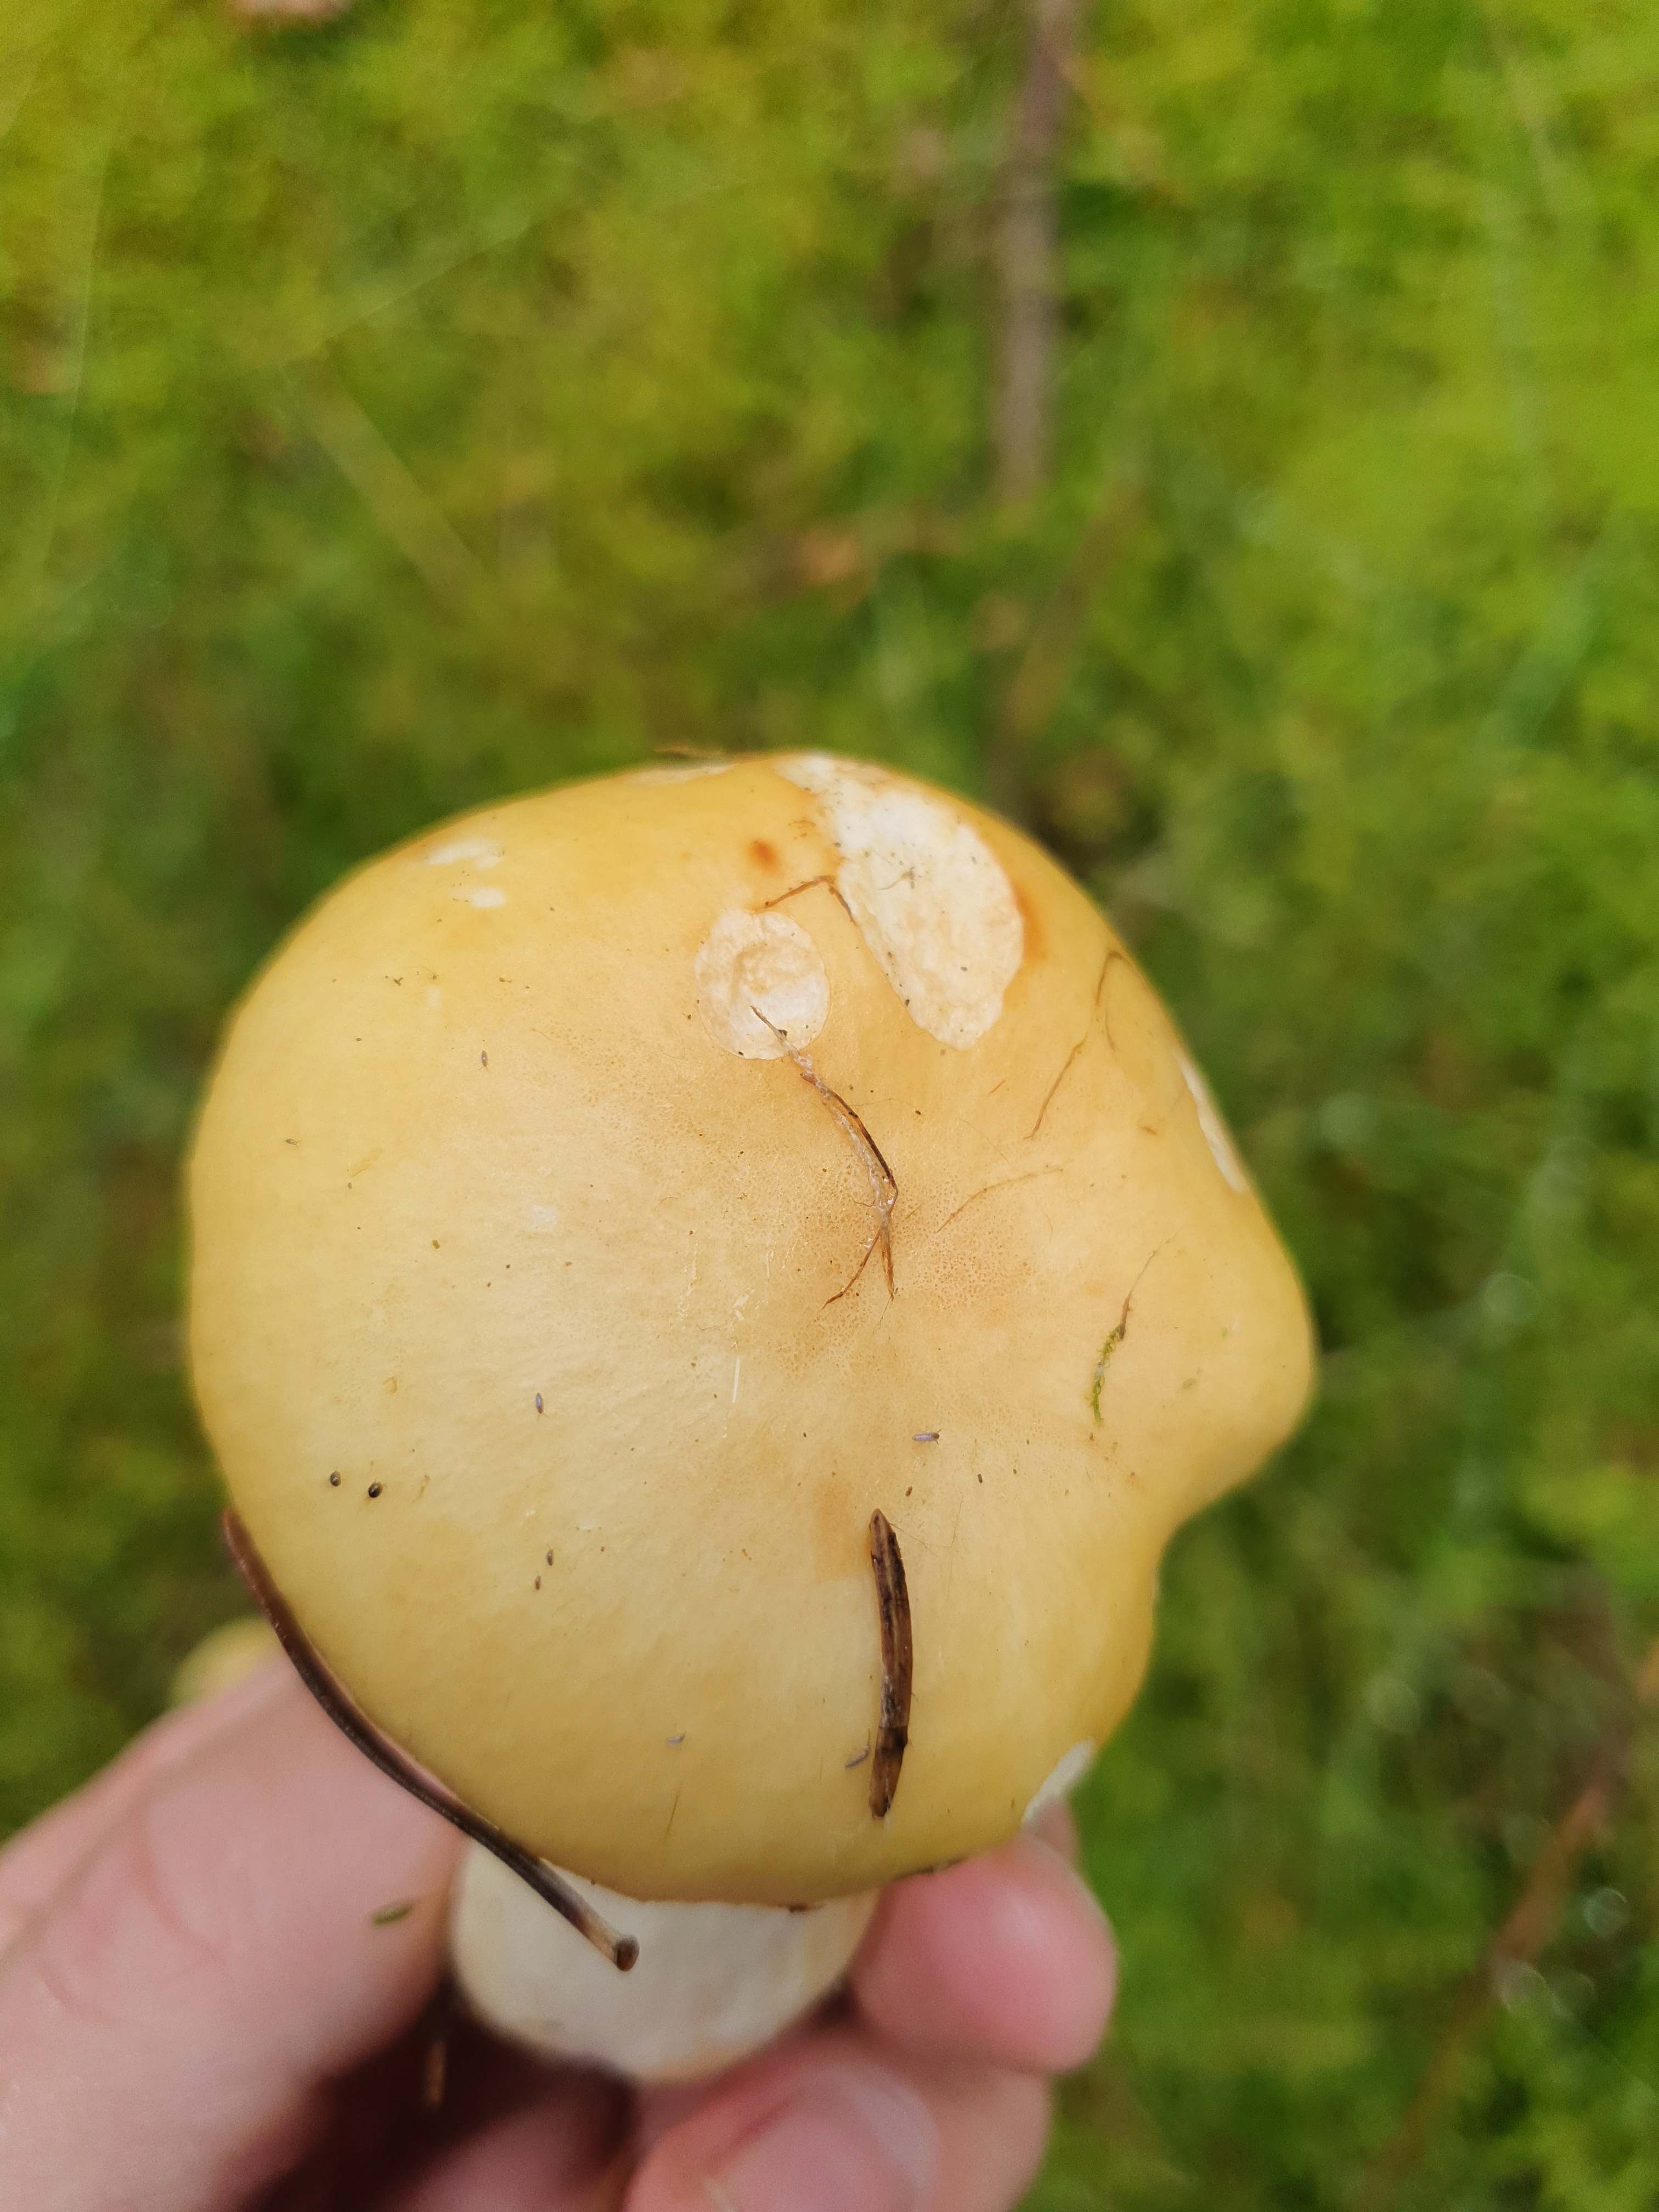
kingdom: Fungi
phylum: Basidiomycota
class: Agaricomycetes
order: Agaricales
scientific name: Agaricales
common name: champignonordenen
